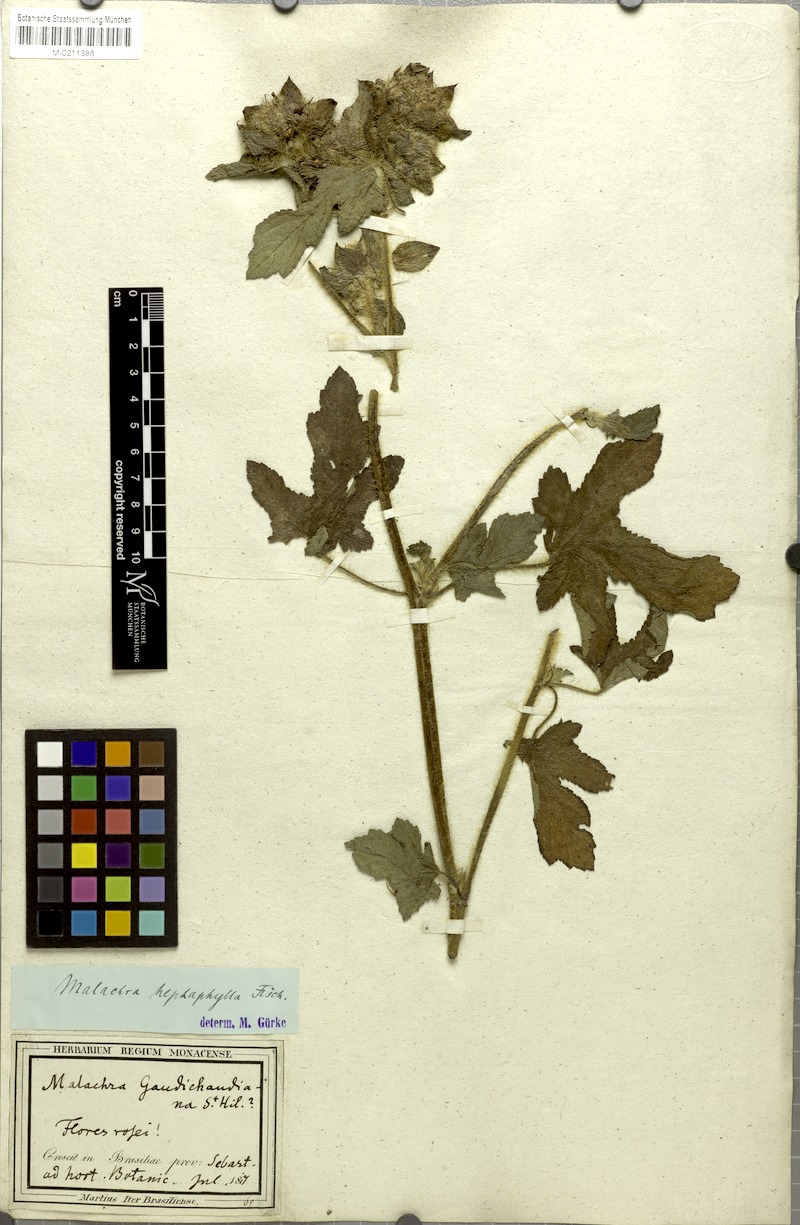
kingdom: Plantae
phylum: Tracheophyta
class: Magnoliopsida
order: Malvales
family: Malvaceae
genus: Malachra
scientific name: Malachra capitata
